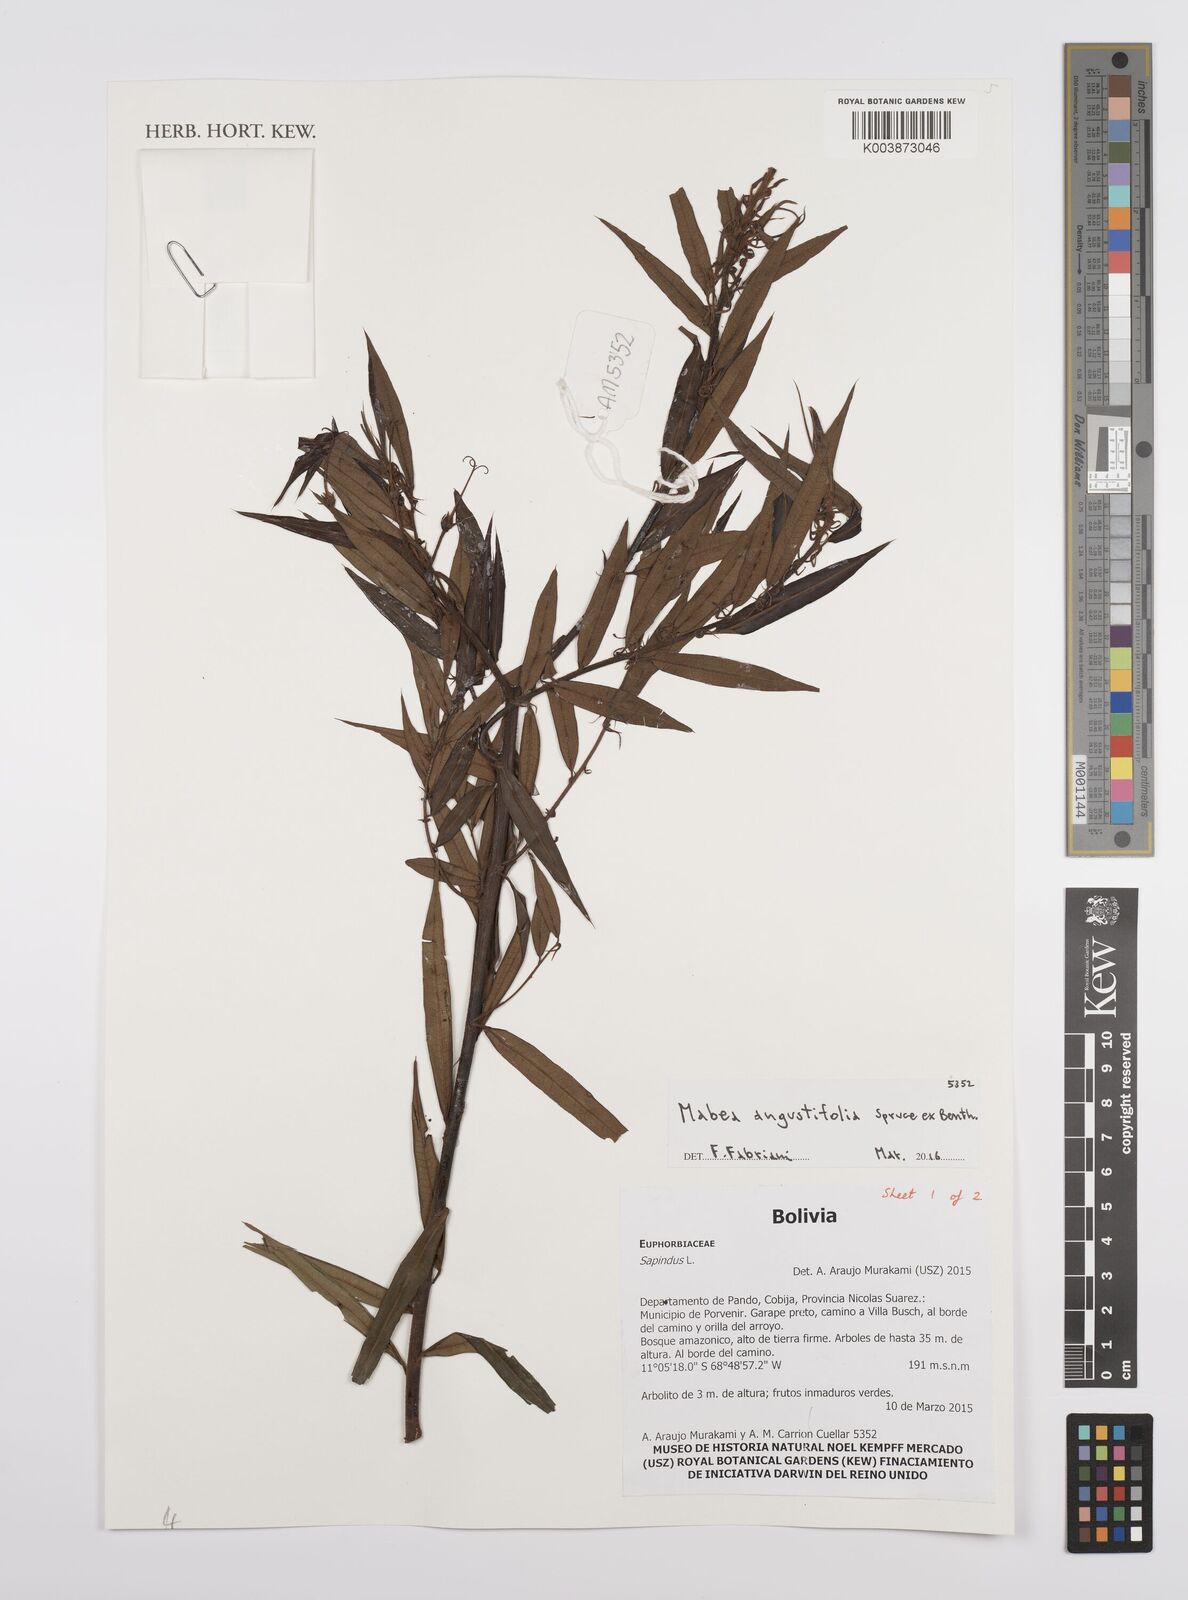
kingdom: Plantae
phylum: Tracheophyta
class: Magnoliopsida
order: Malpighiales
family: Euphorbiaceae
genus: Mabea
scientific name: Mabea angustifolia
